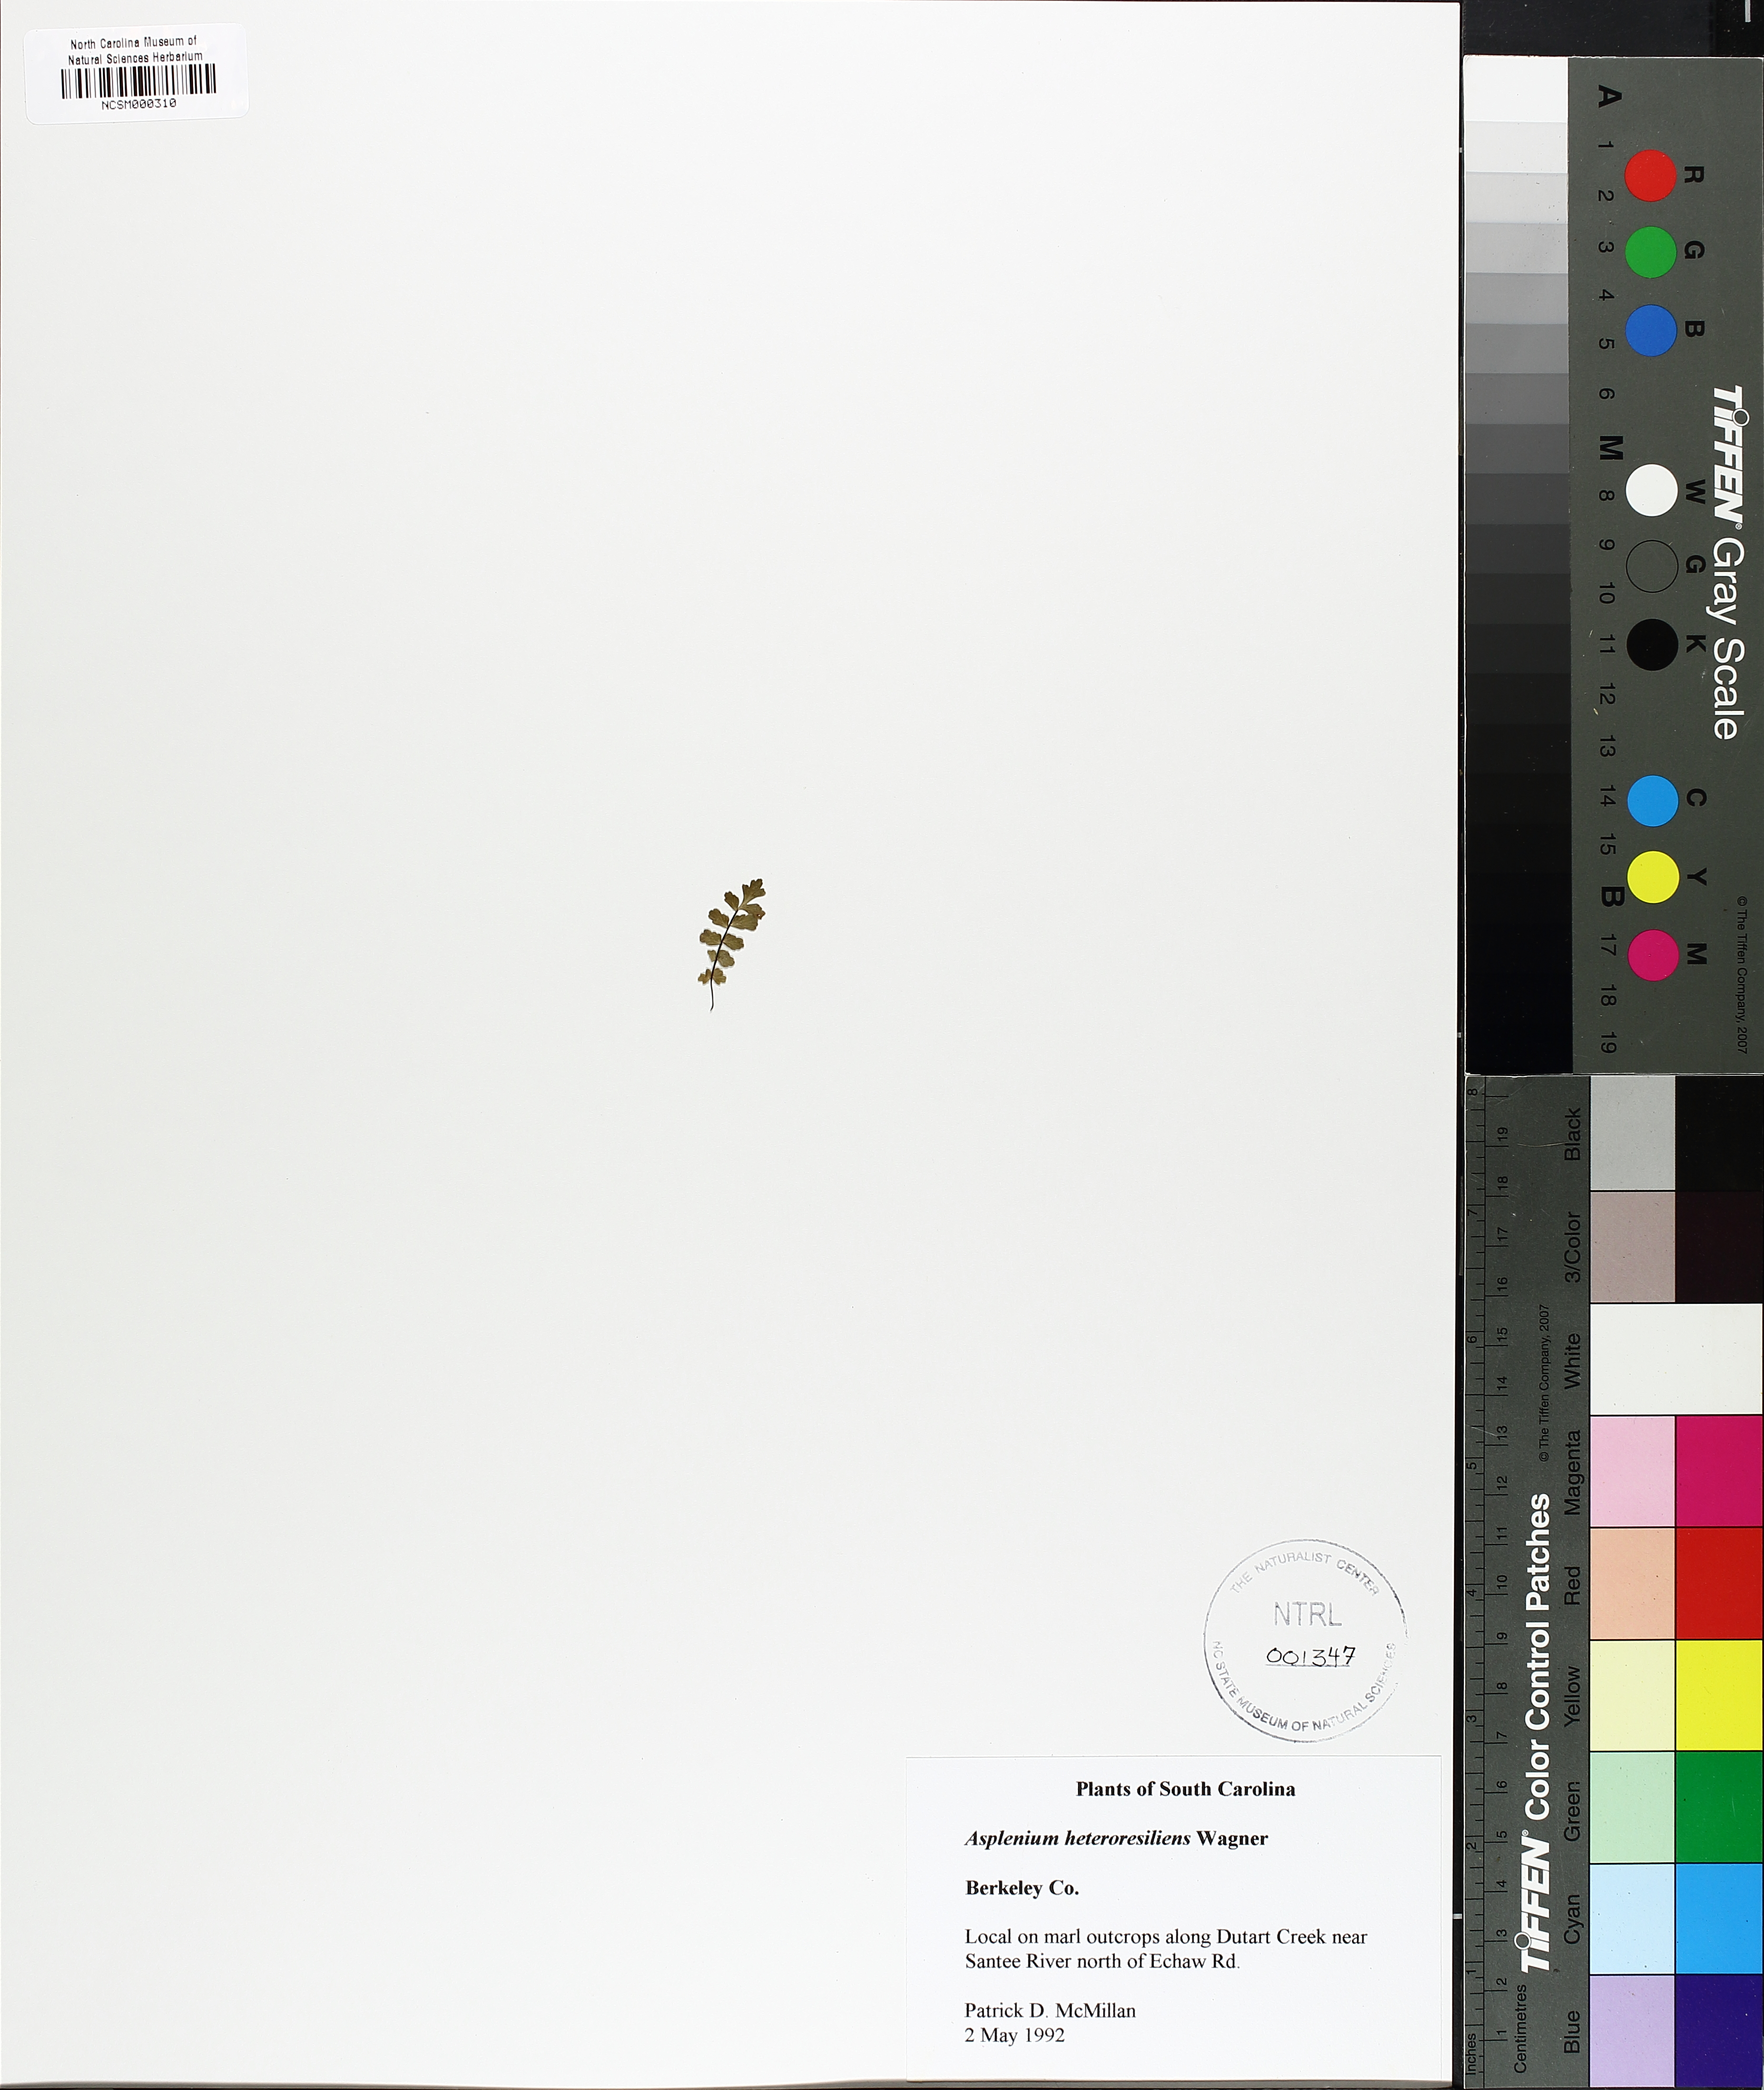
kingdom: Plantae
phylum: Tracheophyta
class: Polypodiopsida
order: Polypodiales
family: Aspleniaceae
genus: Asplenium
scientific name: Asplenium heteroresiliens
